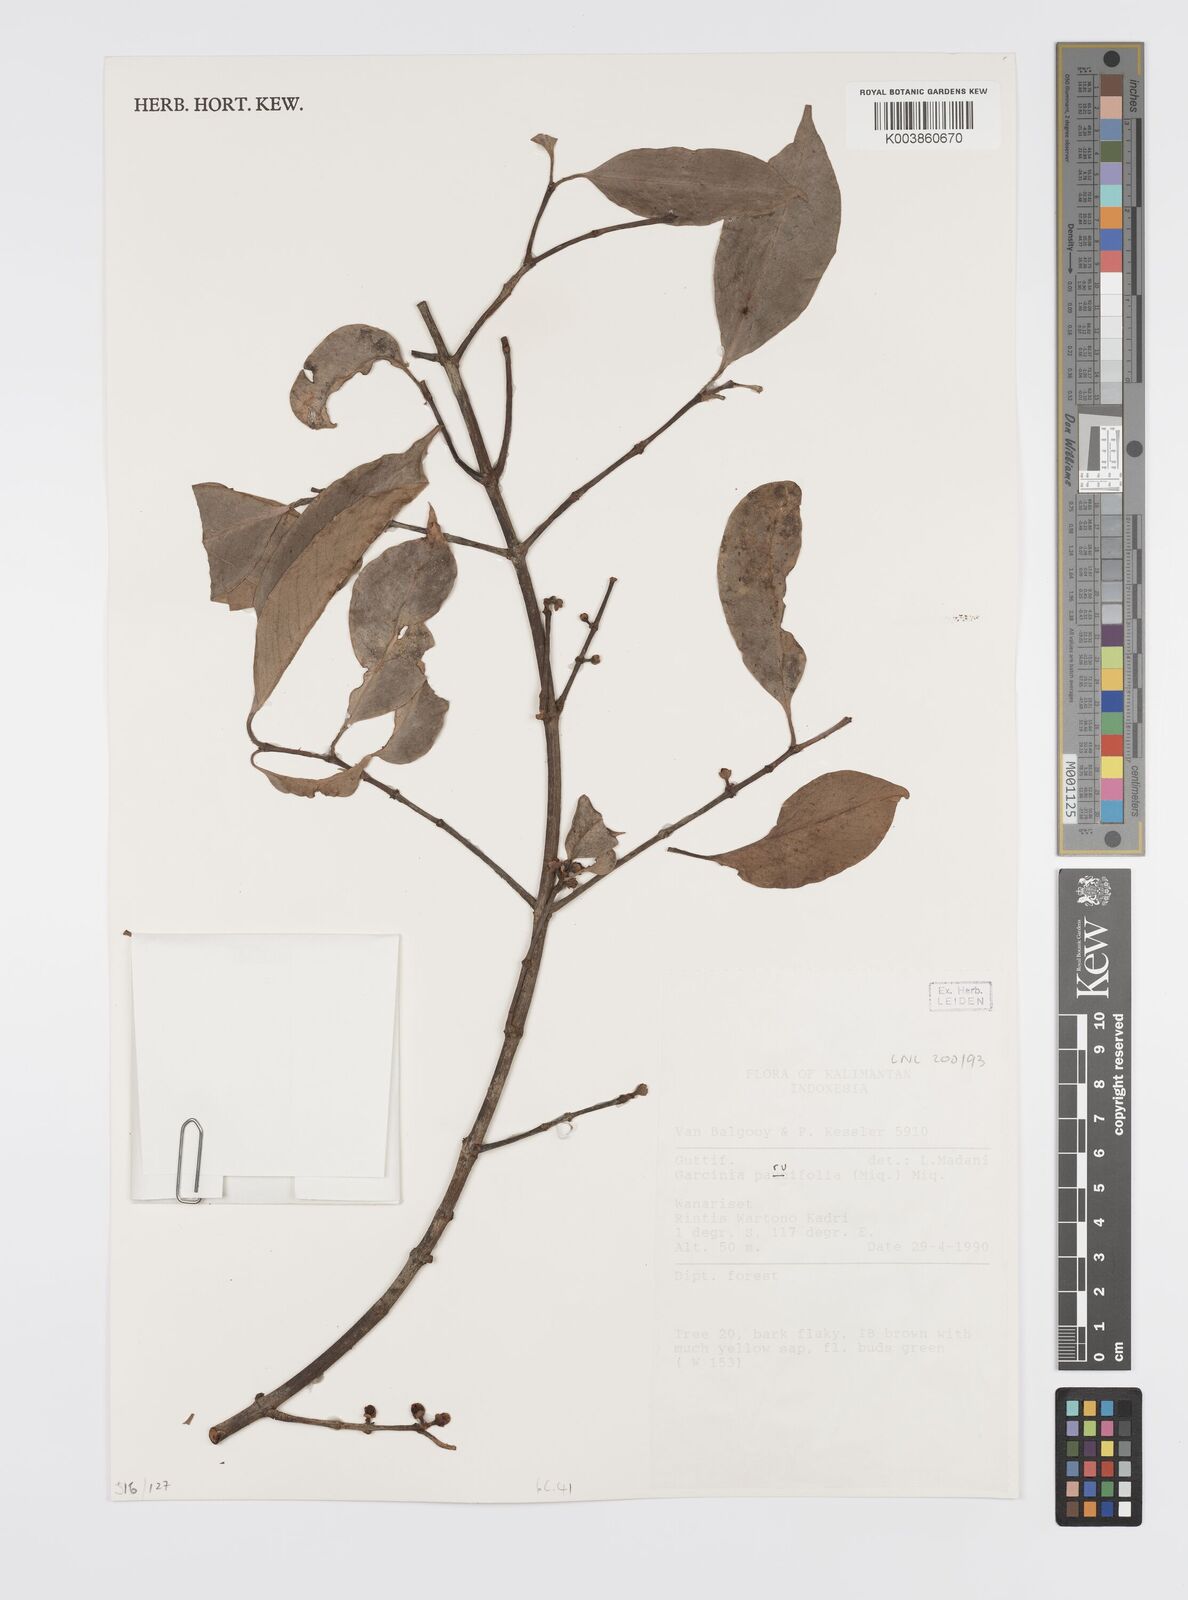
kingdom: Plantae
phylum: Tracheophyta
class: Magnoliopsida
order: Malpighiales
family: Clusiaceae
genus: Garcinia
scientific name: Garcinia parvifolia
